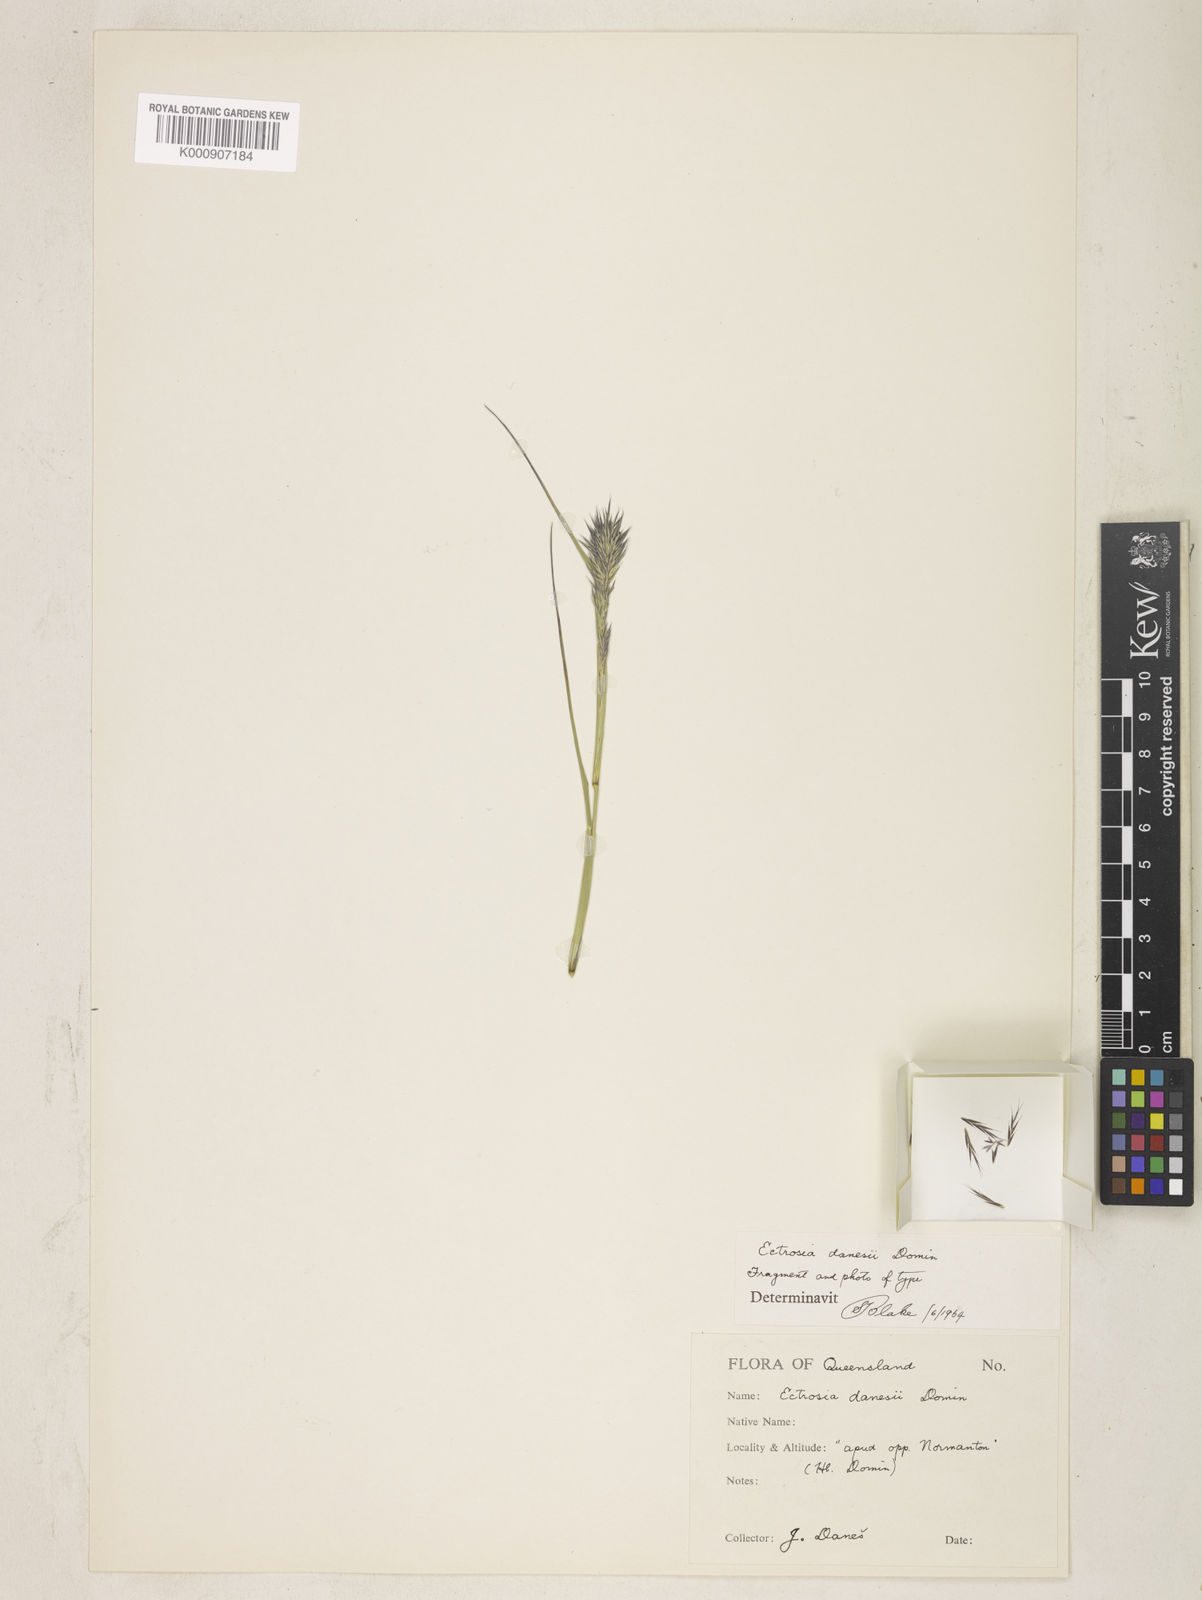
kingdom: Plantae
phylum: Tracheophyta
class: Liliopsida
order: Poales
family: Poaceae
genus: Eragrostis
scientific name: Eragrostis danesii
